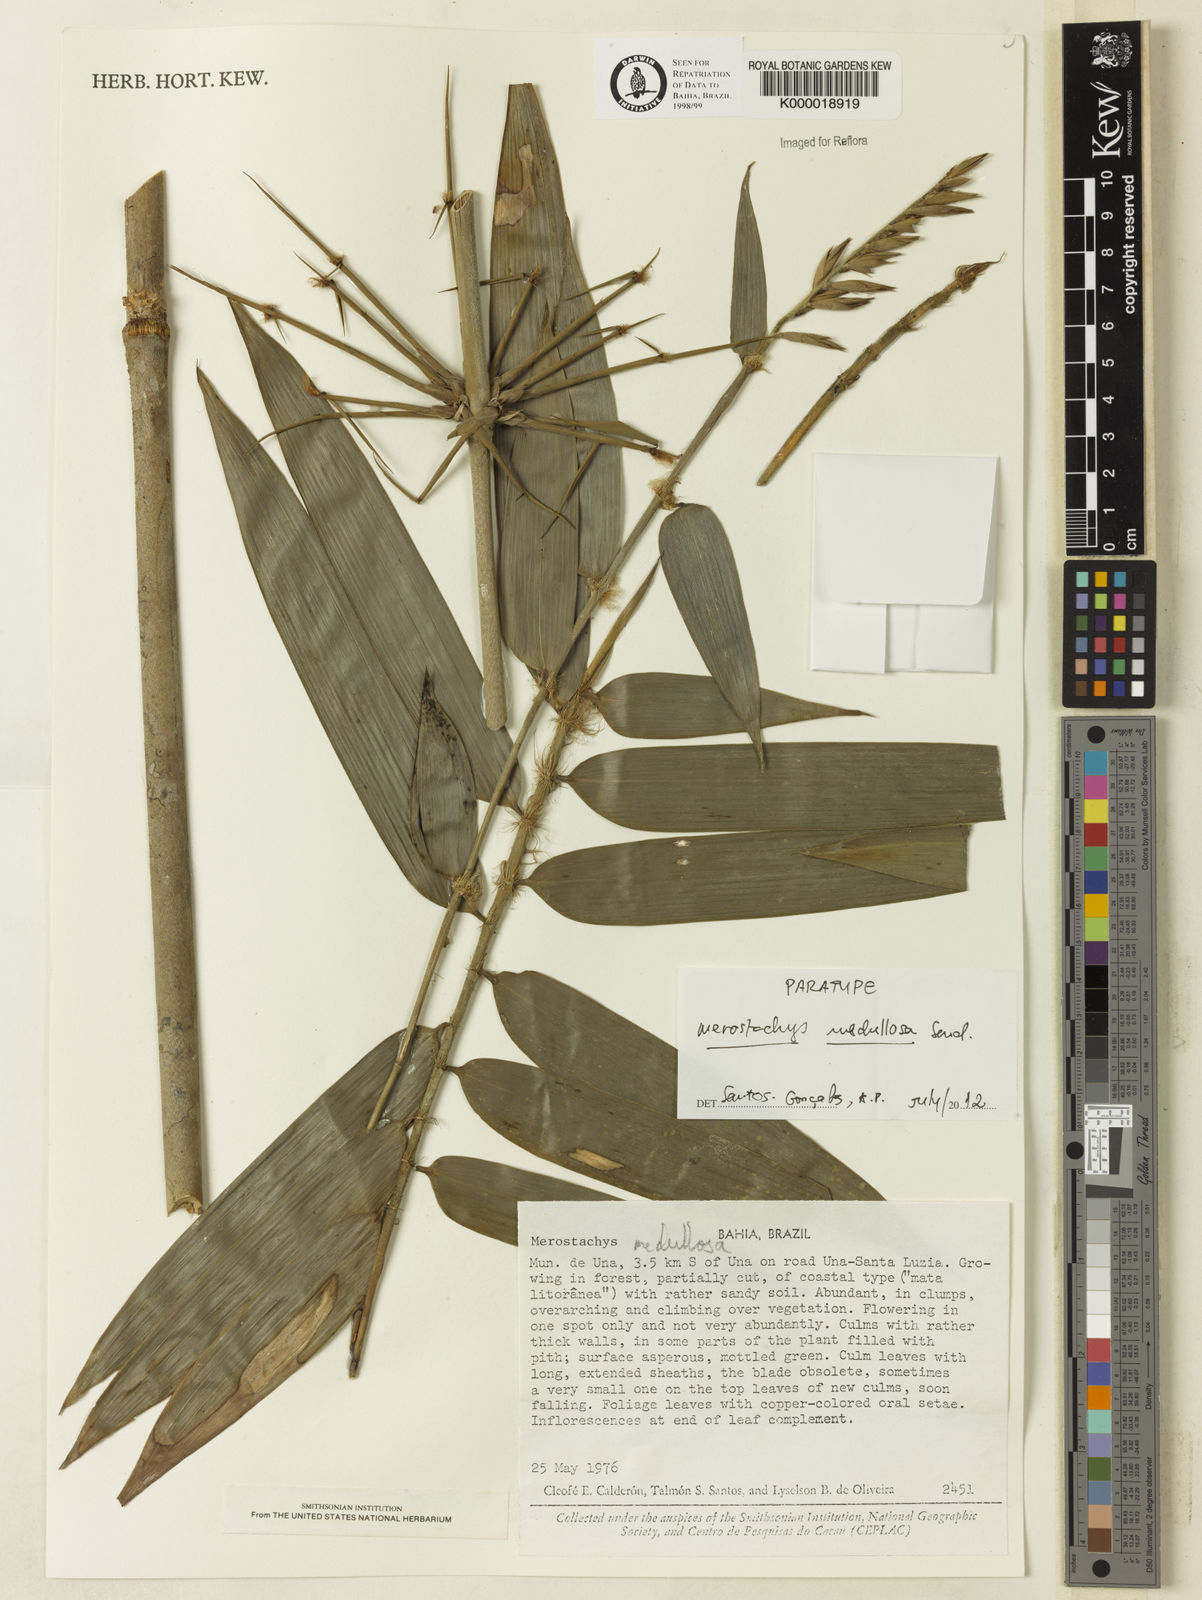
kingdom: Plantae
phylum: Tracheophyta
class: Liliopsida
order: Poales
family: Poaceae
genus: Merostachys
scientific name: Merostachys medullosa
